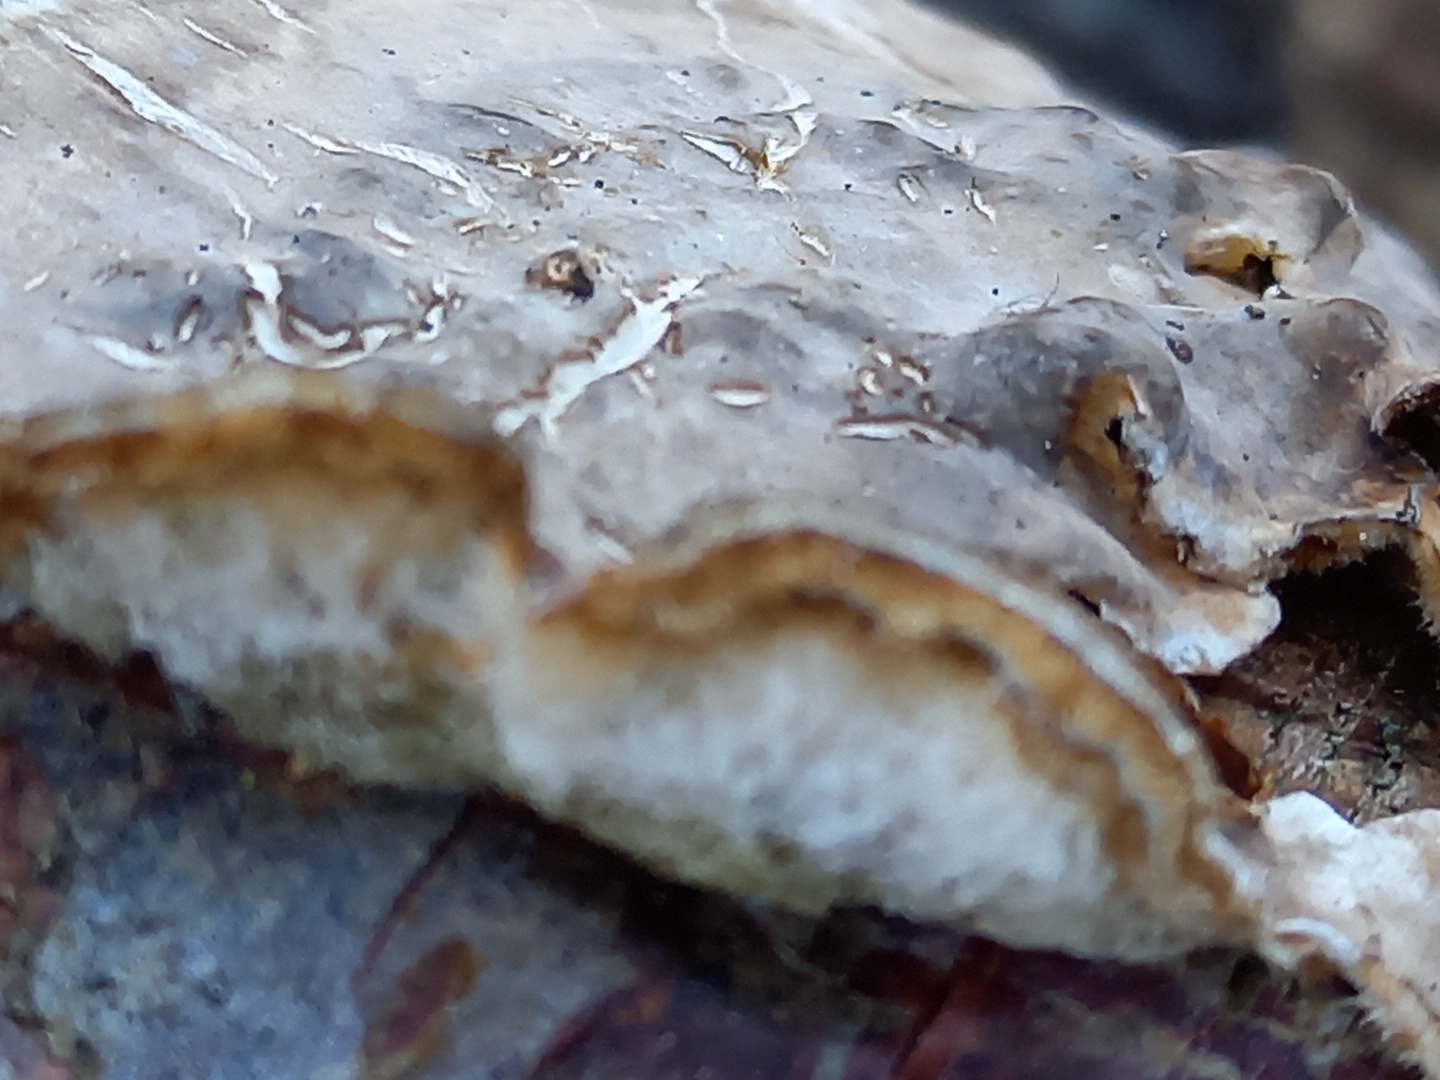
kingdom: Fungi
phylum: Basidiomycota
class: Agaricomycetes
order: Agaricales
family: Physalacriaceae
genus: Cylindrobasidium
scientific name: Cylindrobasidium evolvens
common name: sprækkehinde
